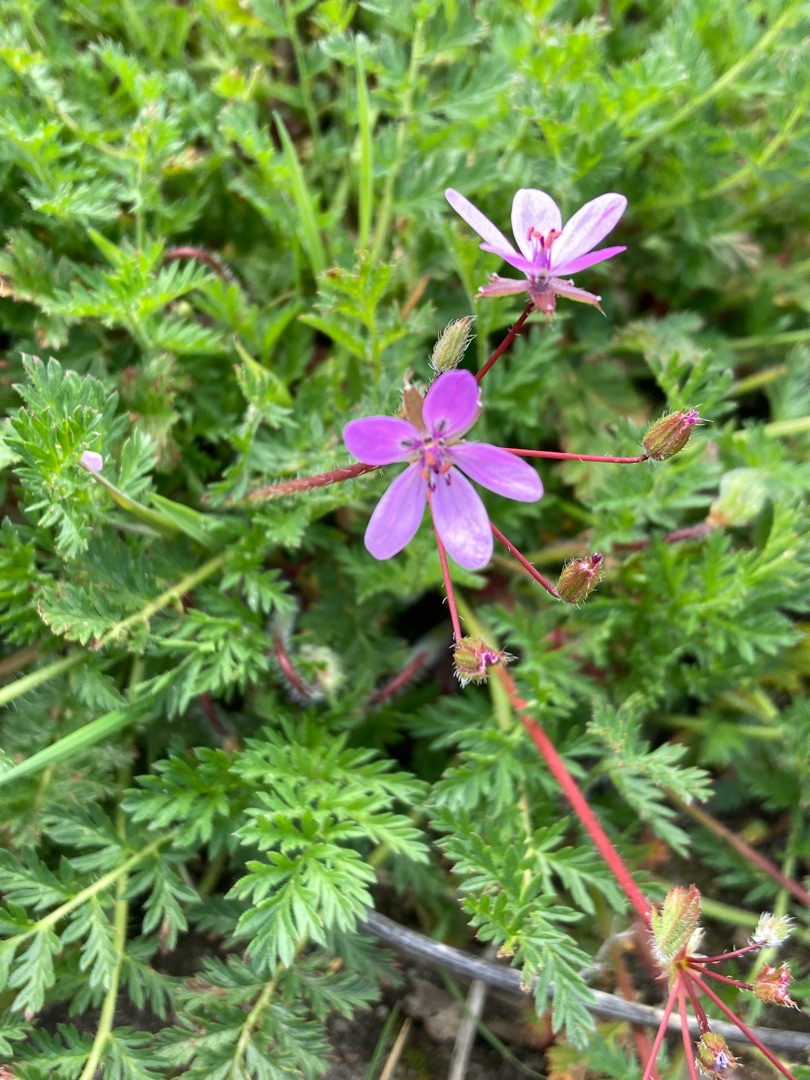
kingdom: Plantae
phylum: Tracheophyta
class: Magnoliopsida
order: Geraniales
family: Geraniaceae
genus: Erodium
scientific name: Erodium cicutarium
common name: Hejrenæb
